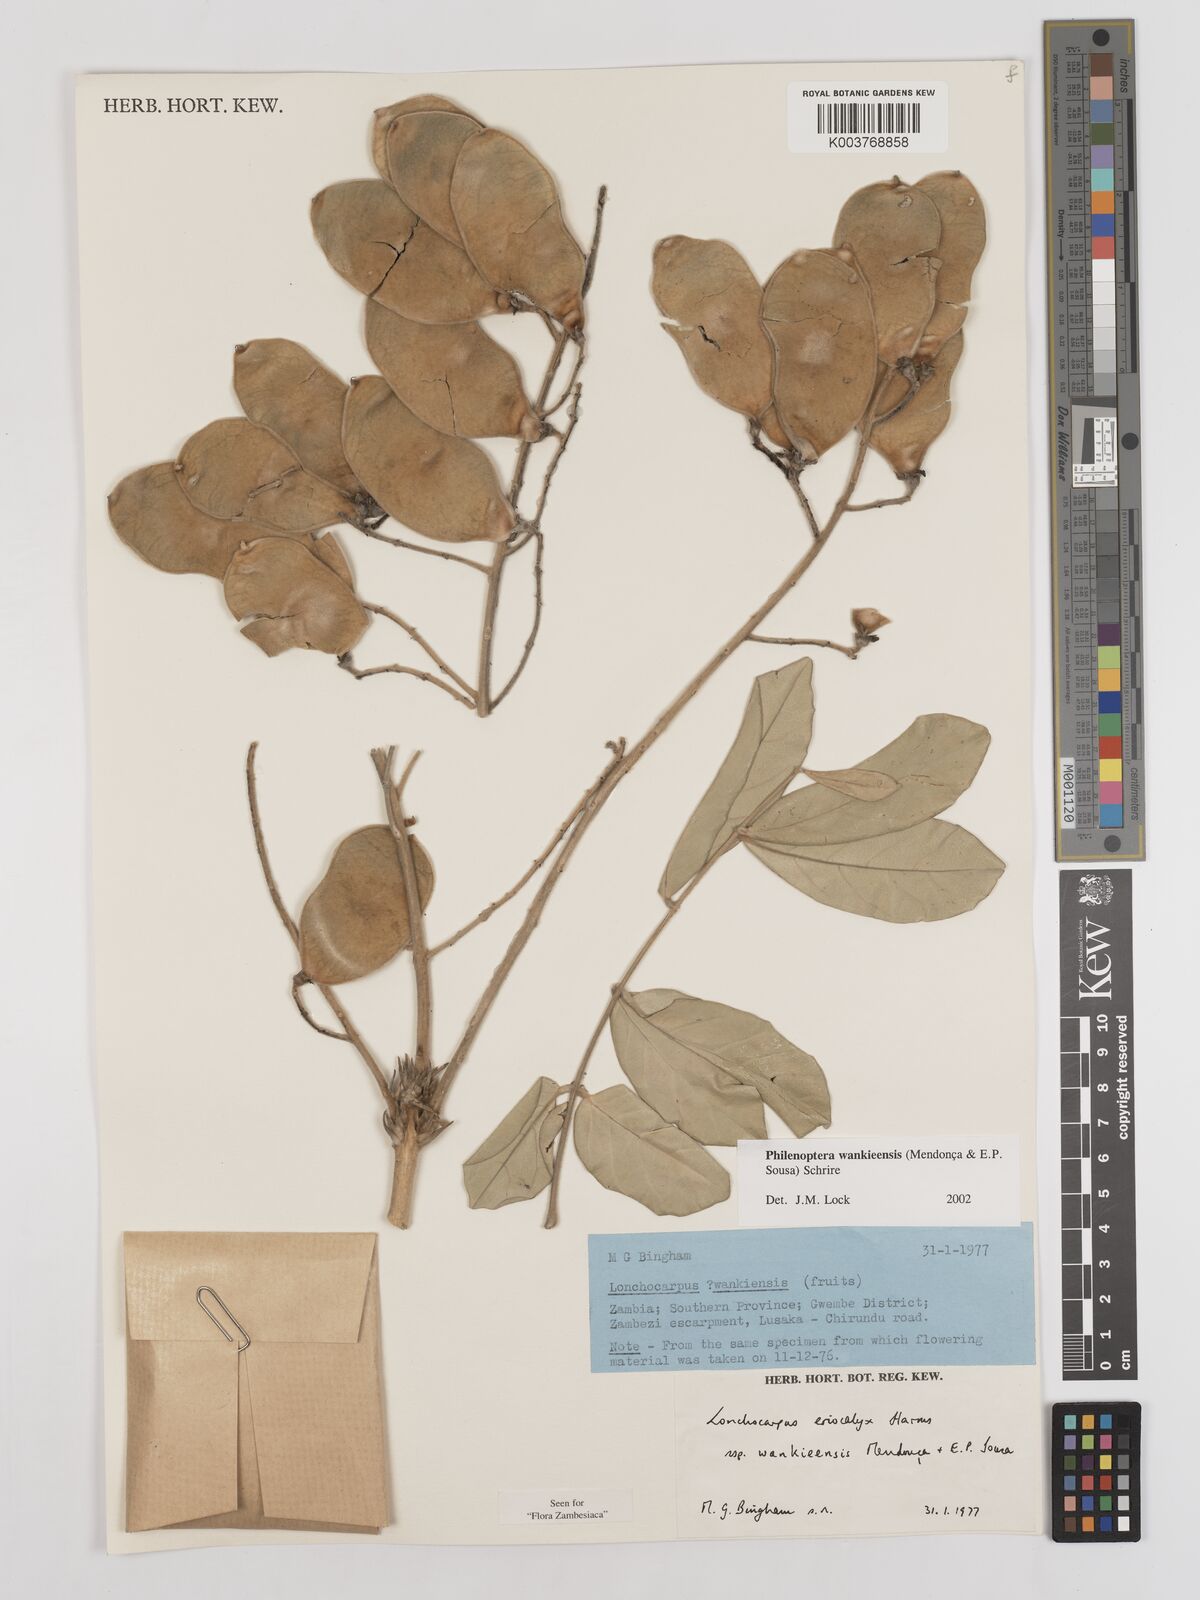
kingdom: Plantae
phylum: Tracheophyta
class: Magnoliopsida
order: Fabales
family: Fabaceae
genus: Philenoptera
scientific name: Philenoptera wankieensis
